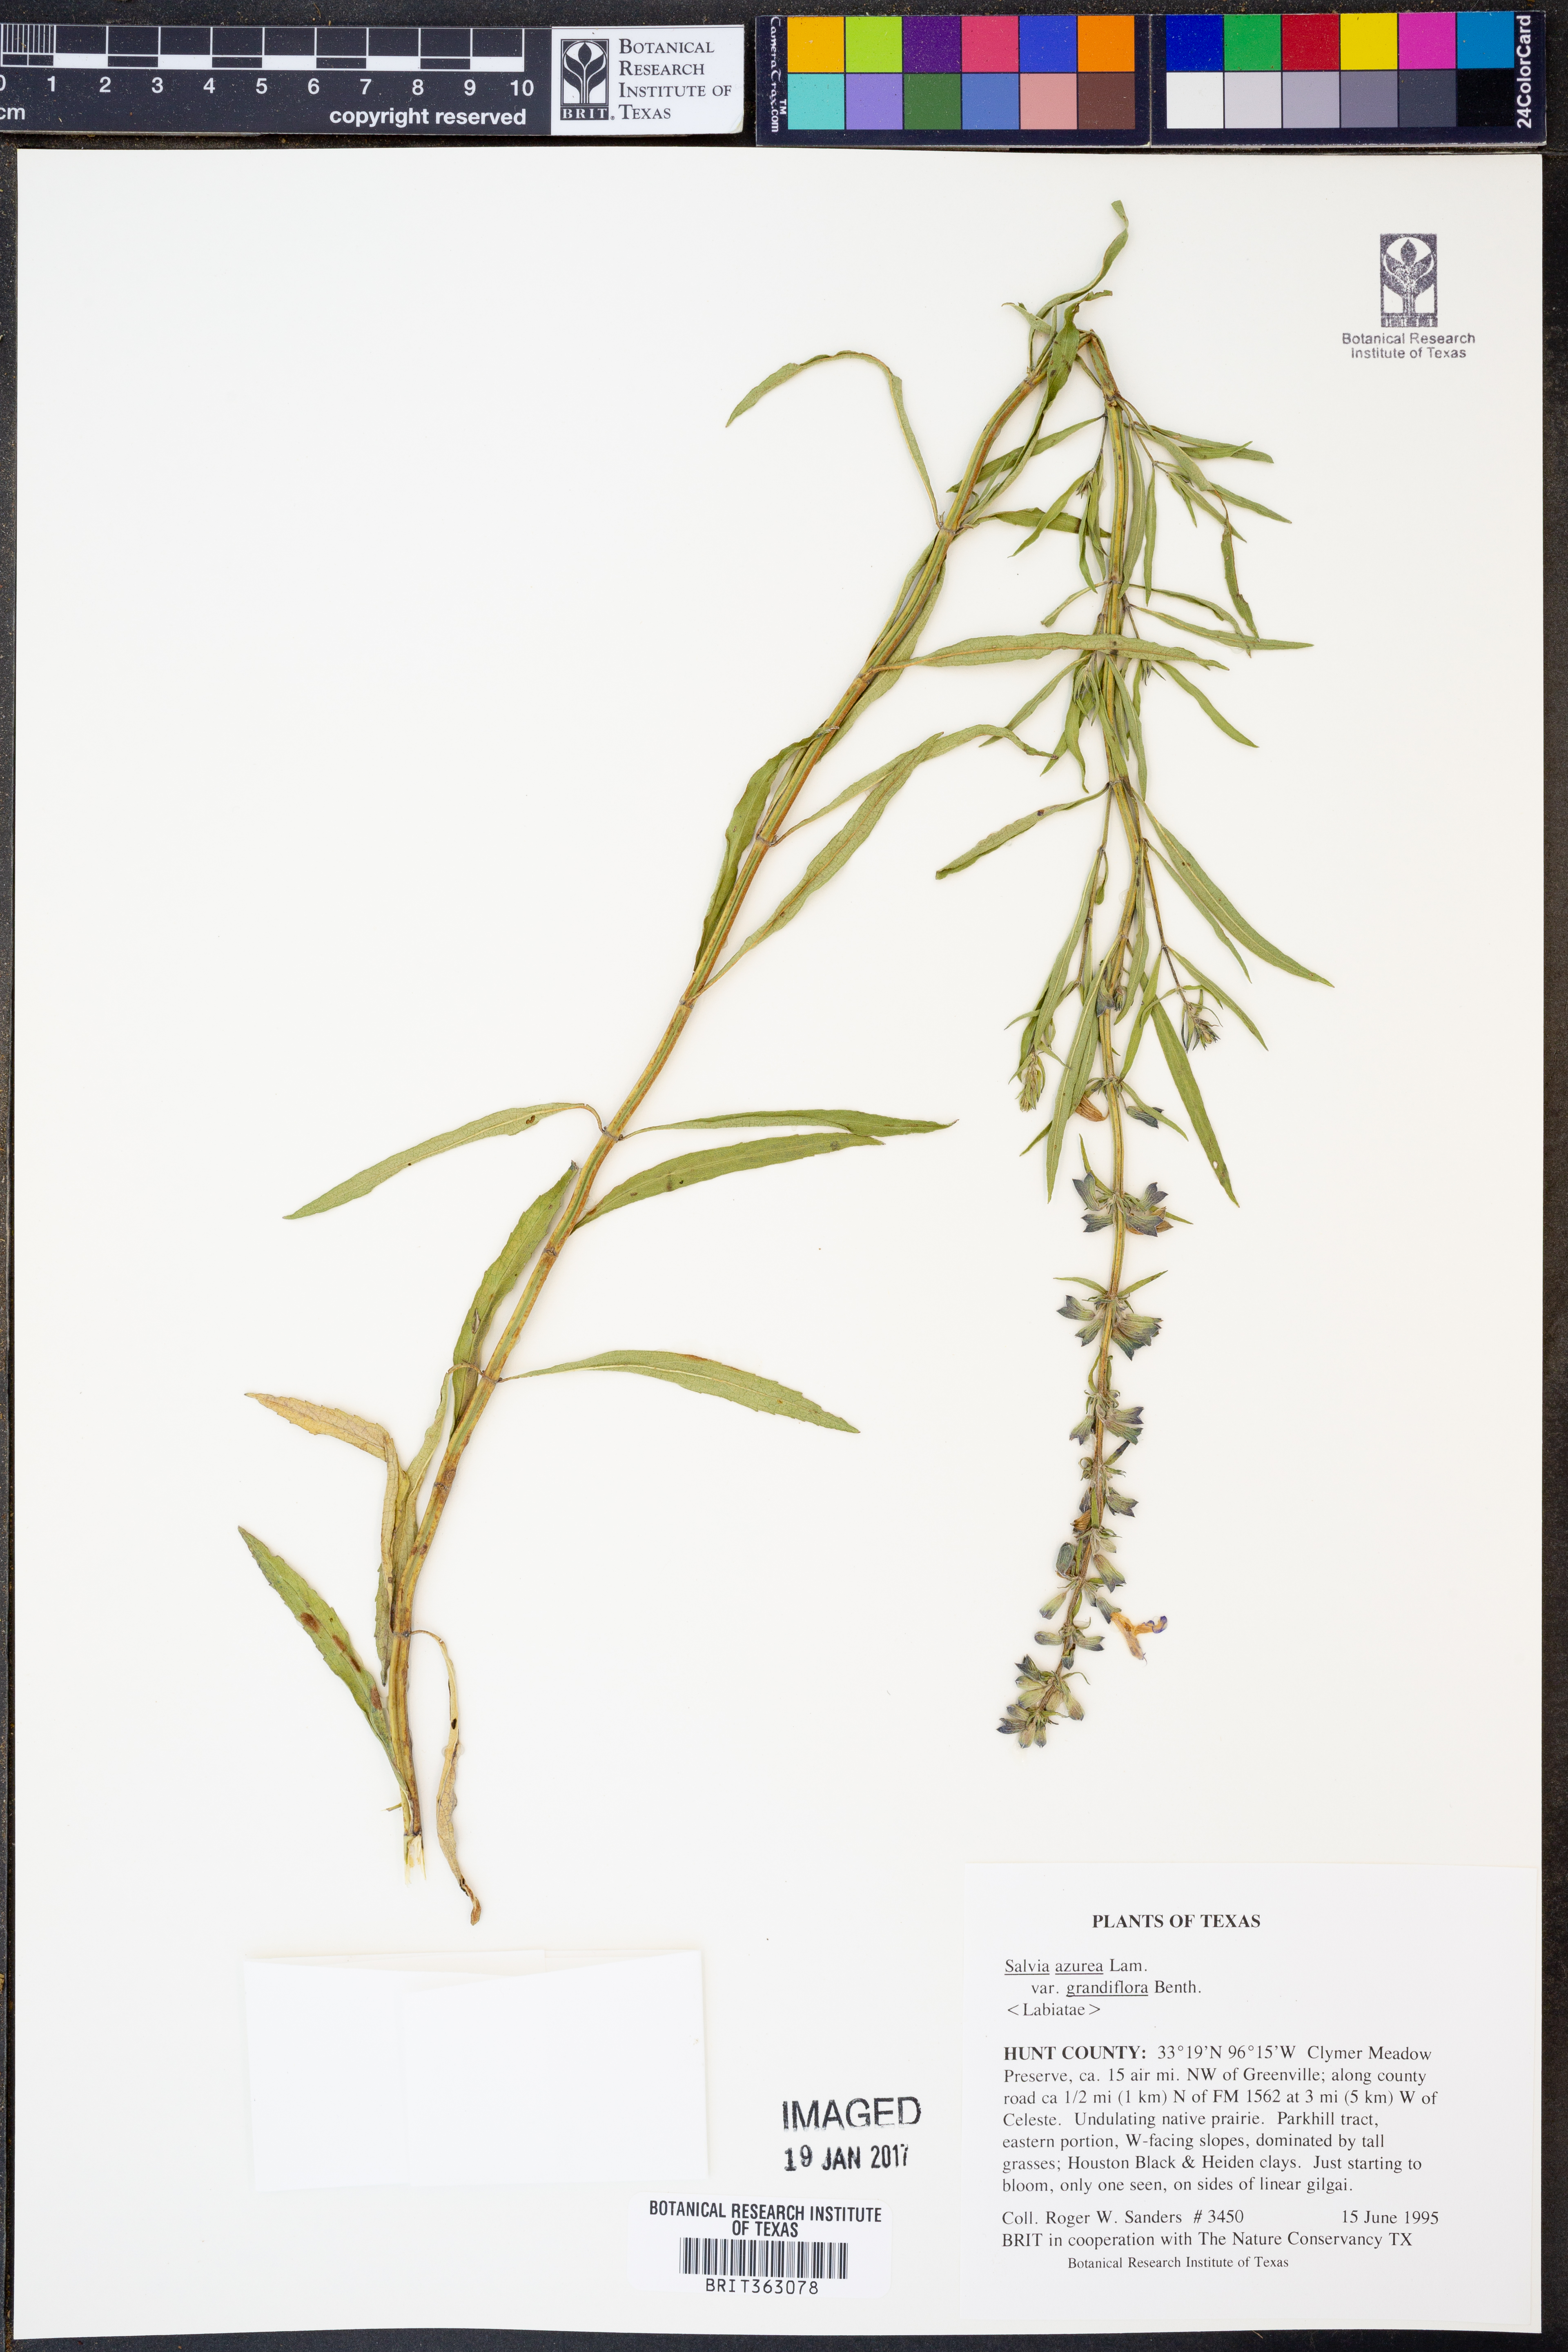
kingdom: Plantae
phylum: Tracheophyta
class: Magnoliopsida
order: Lamiales
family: Lamiaceae
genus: Salvia
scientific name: Salvia azurea
